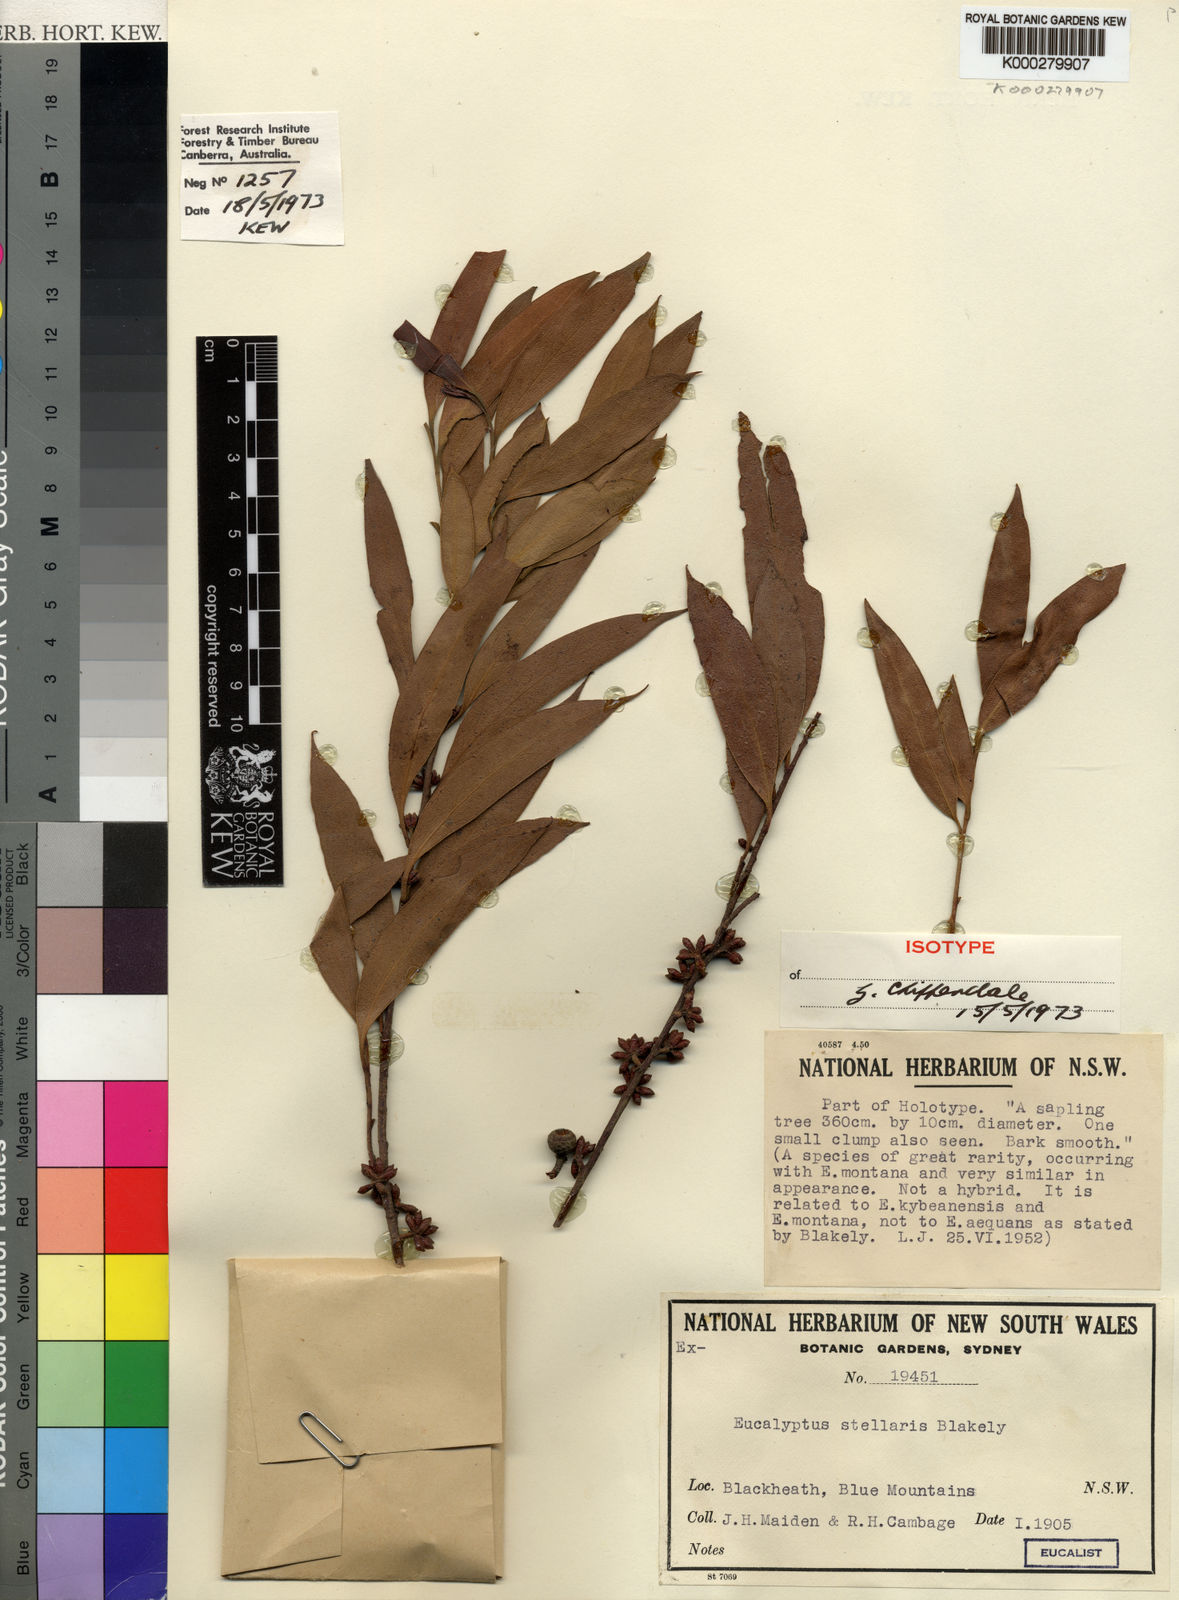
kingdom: Plantae
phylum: Tracheophyta
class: Magnoliopsida
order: Myrtales
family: Myrtaceae
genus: Eucalyptus
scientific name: Eucalyptus stellaris
